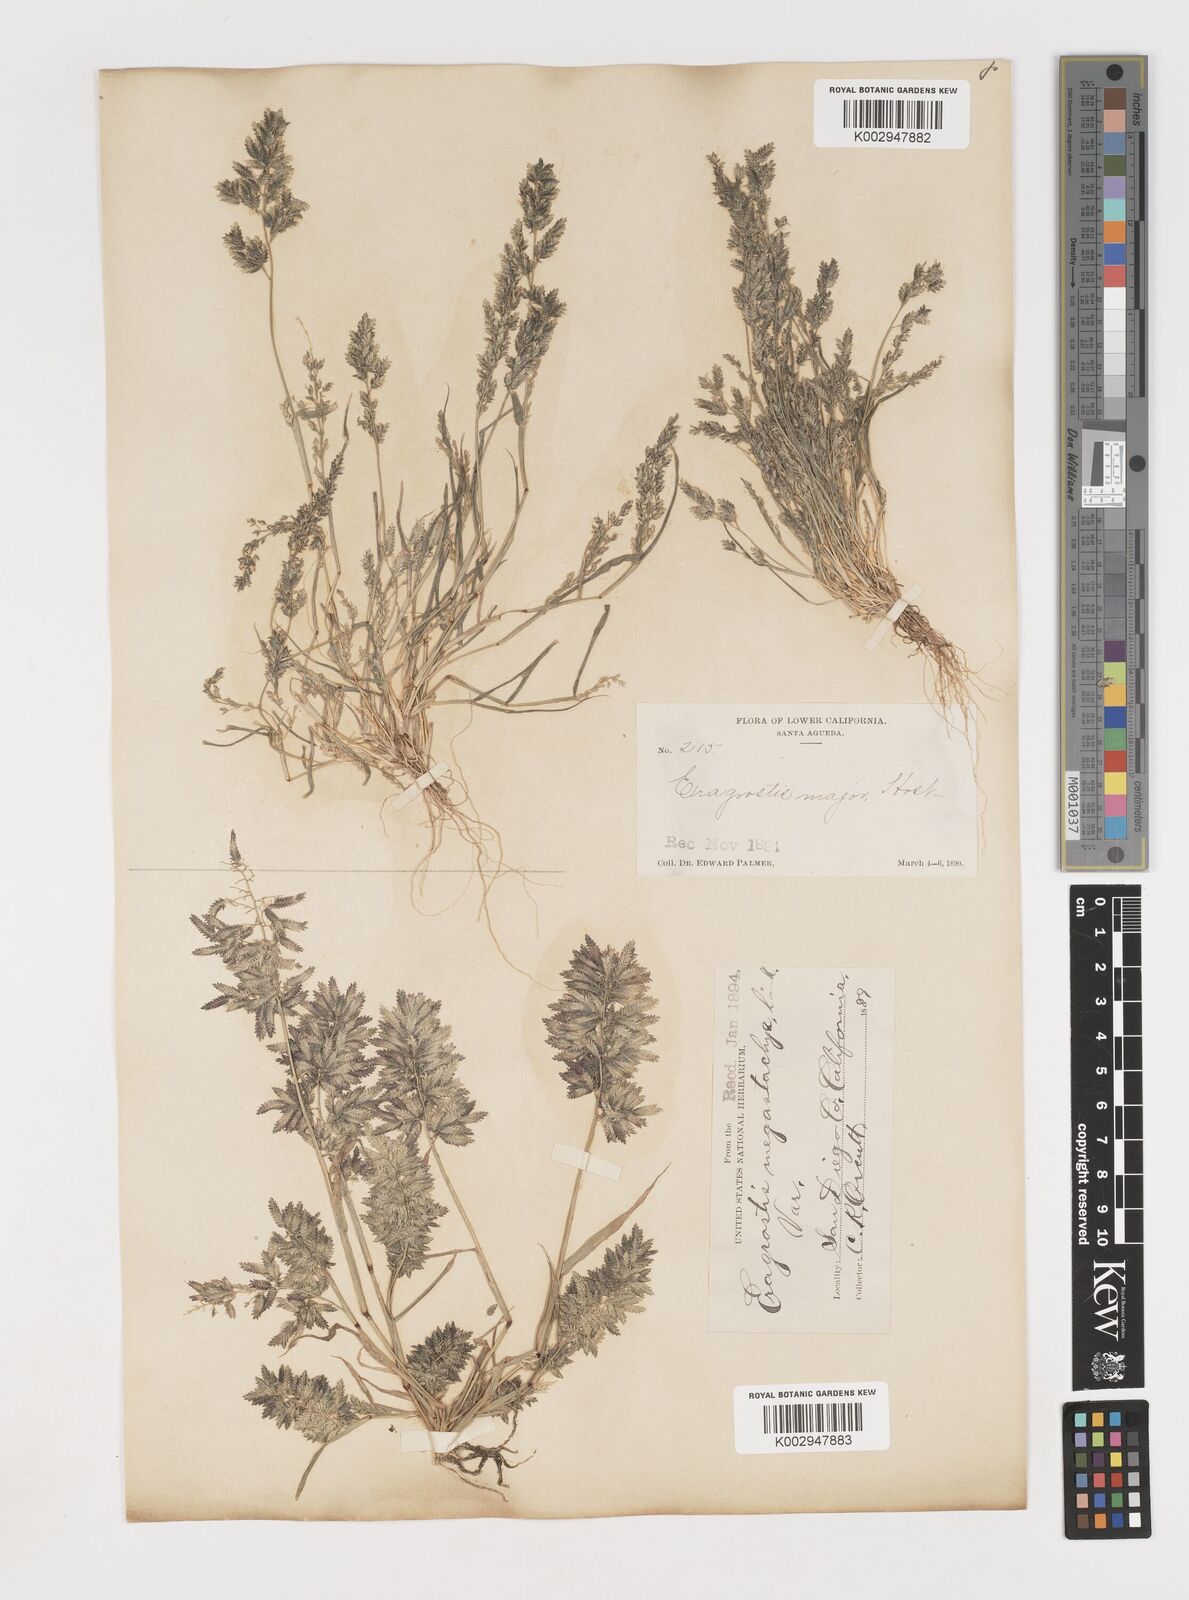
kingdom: Plantae
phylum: Tracheophyta
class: Liliopsida
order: Poales
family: Poaceae
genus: Eragrostis
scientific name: Eragrostis cilianensis
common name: Stinkgrass
